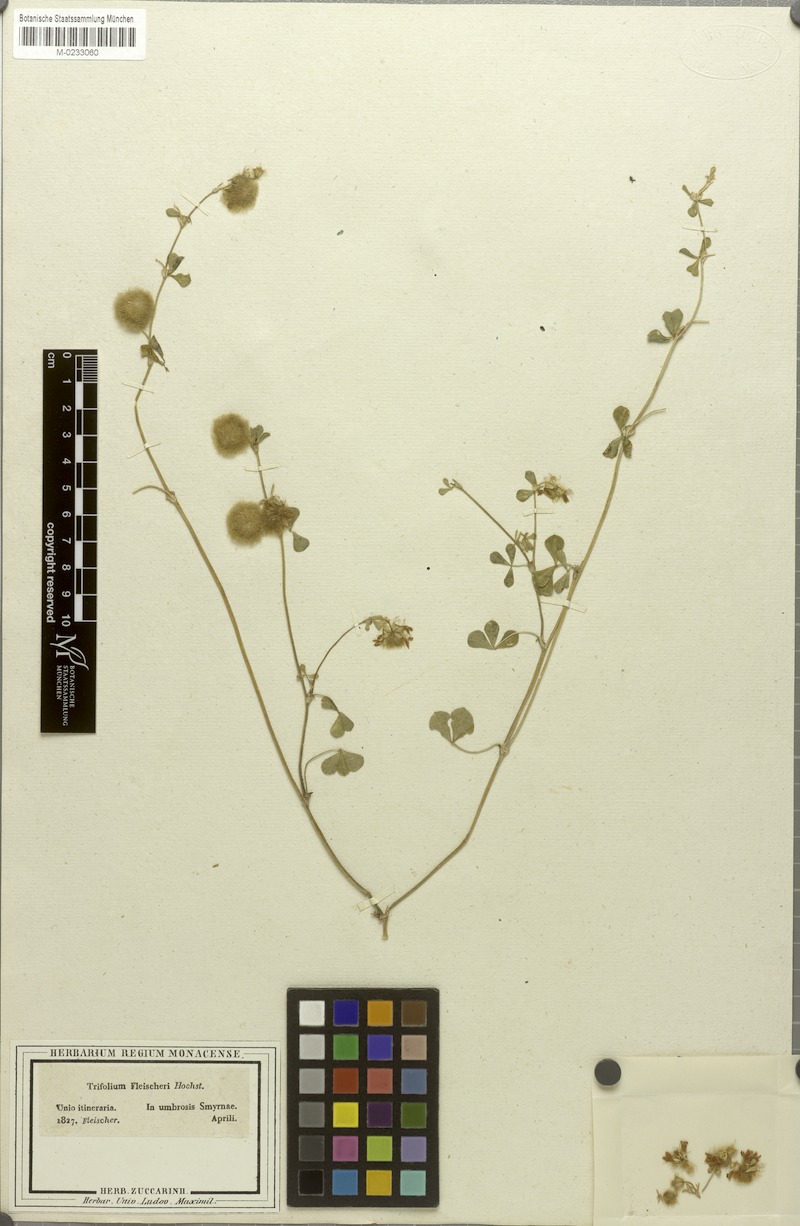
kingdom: Plantae
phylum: Tracheophyta
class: Magnoliopsida
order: Fabales
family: Fabaceae
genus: Trifolium
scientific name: Trifolium globosum
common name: Round-head clover
